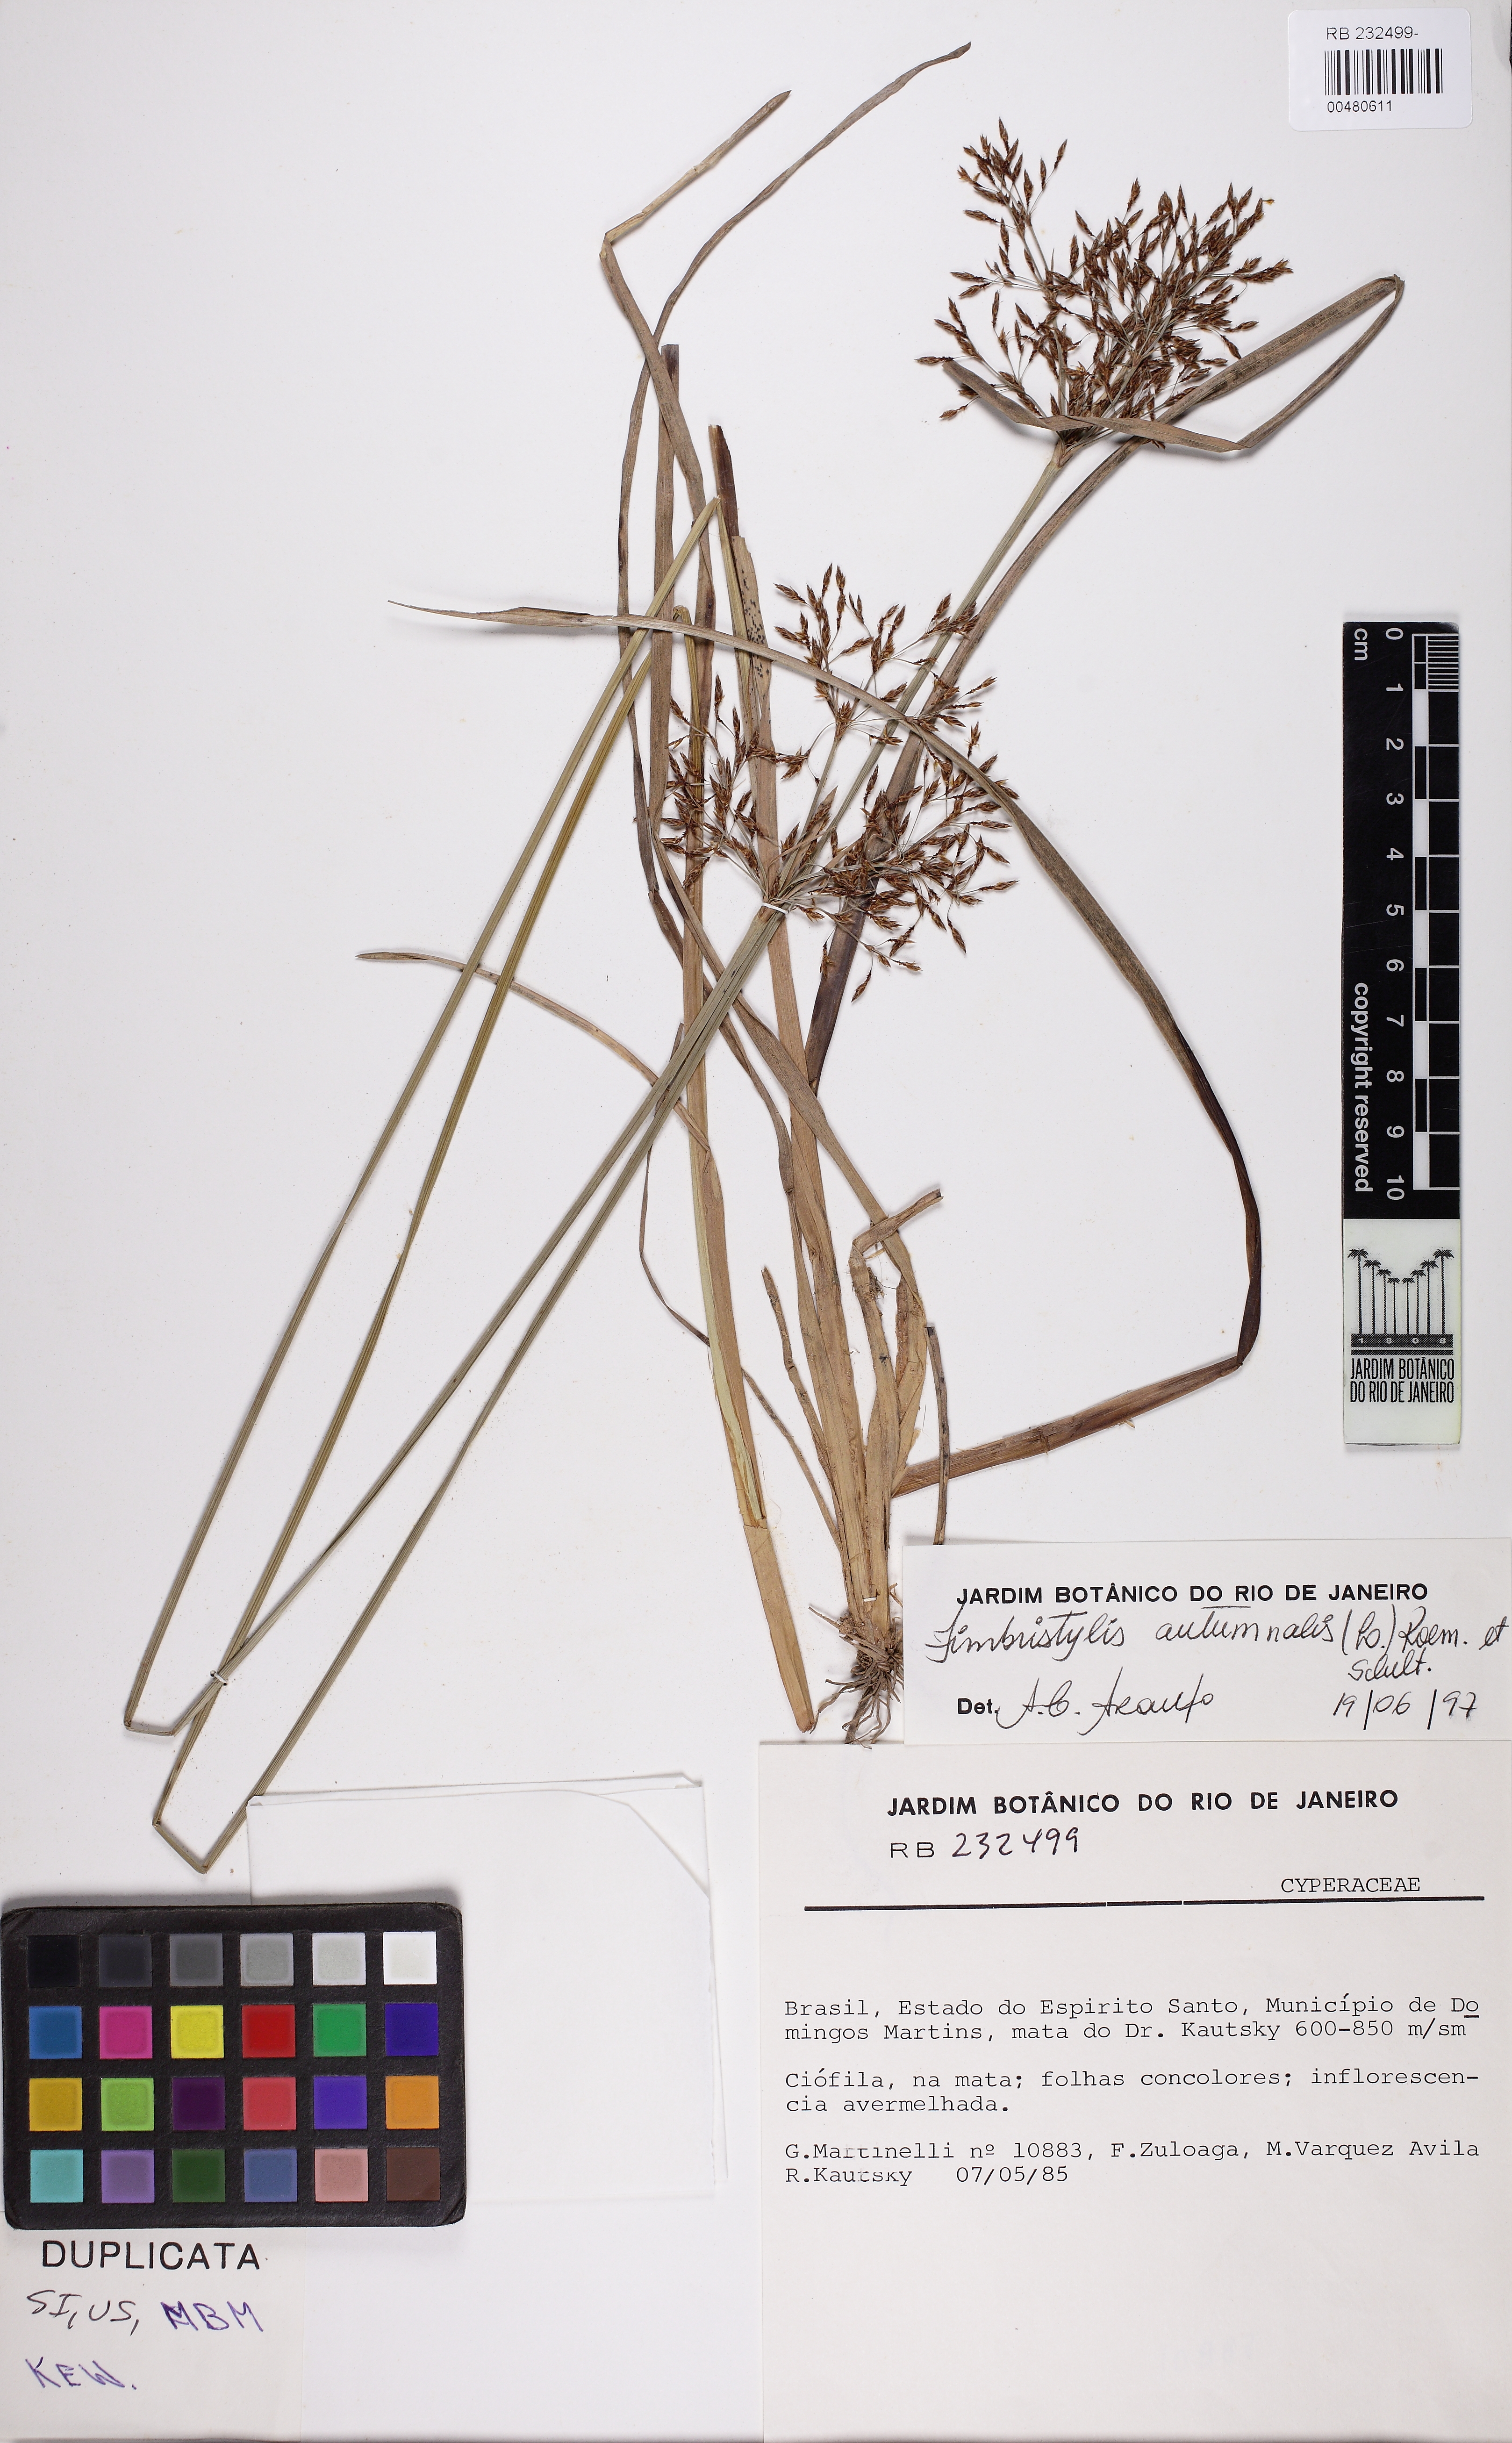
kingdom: Plantae
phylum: Tracheophyta
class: Liliopsida
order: Poales
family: Cyperaceae
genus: Fimbristylis
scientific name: Fimbristylis autumnalis
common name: Slender fimbristylis
